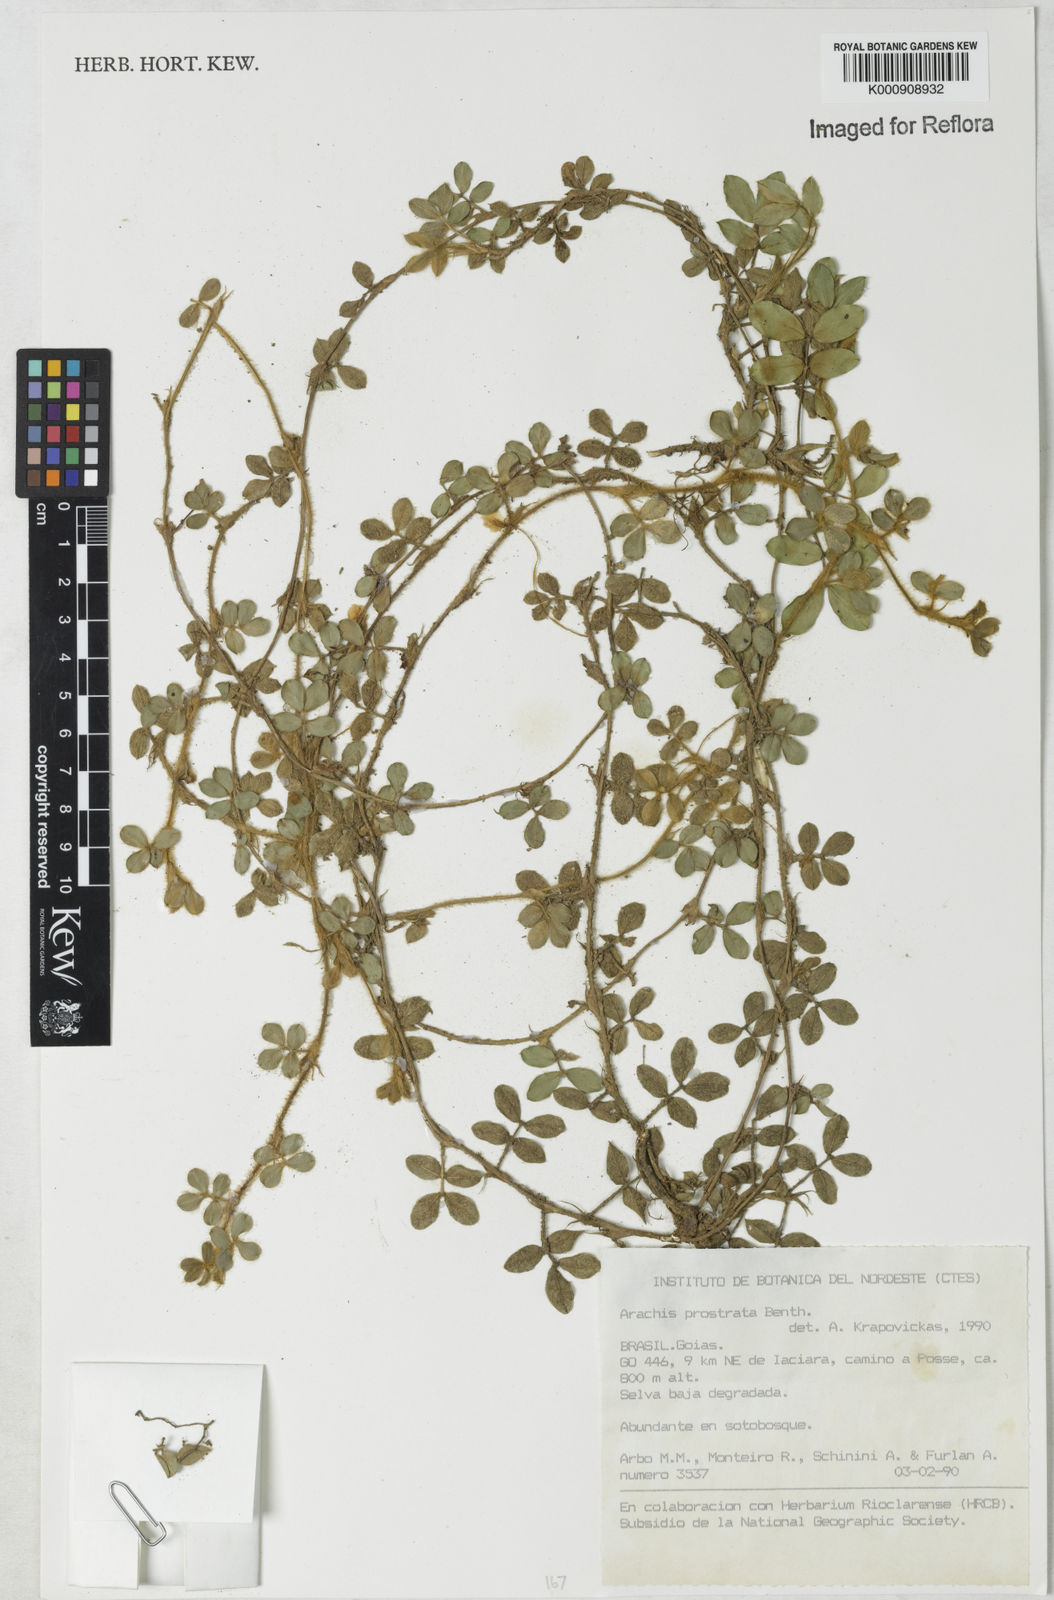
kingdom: Plantae
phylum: Tracheophyta
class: Magnoliopsida
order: Fabales
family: Fabaceae
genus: Arachis
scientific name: Arachis prostrata
